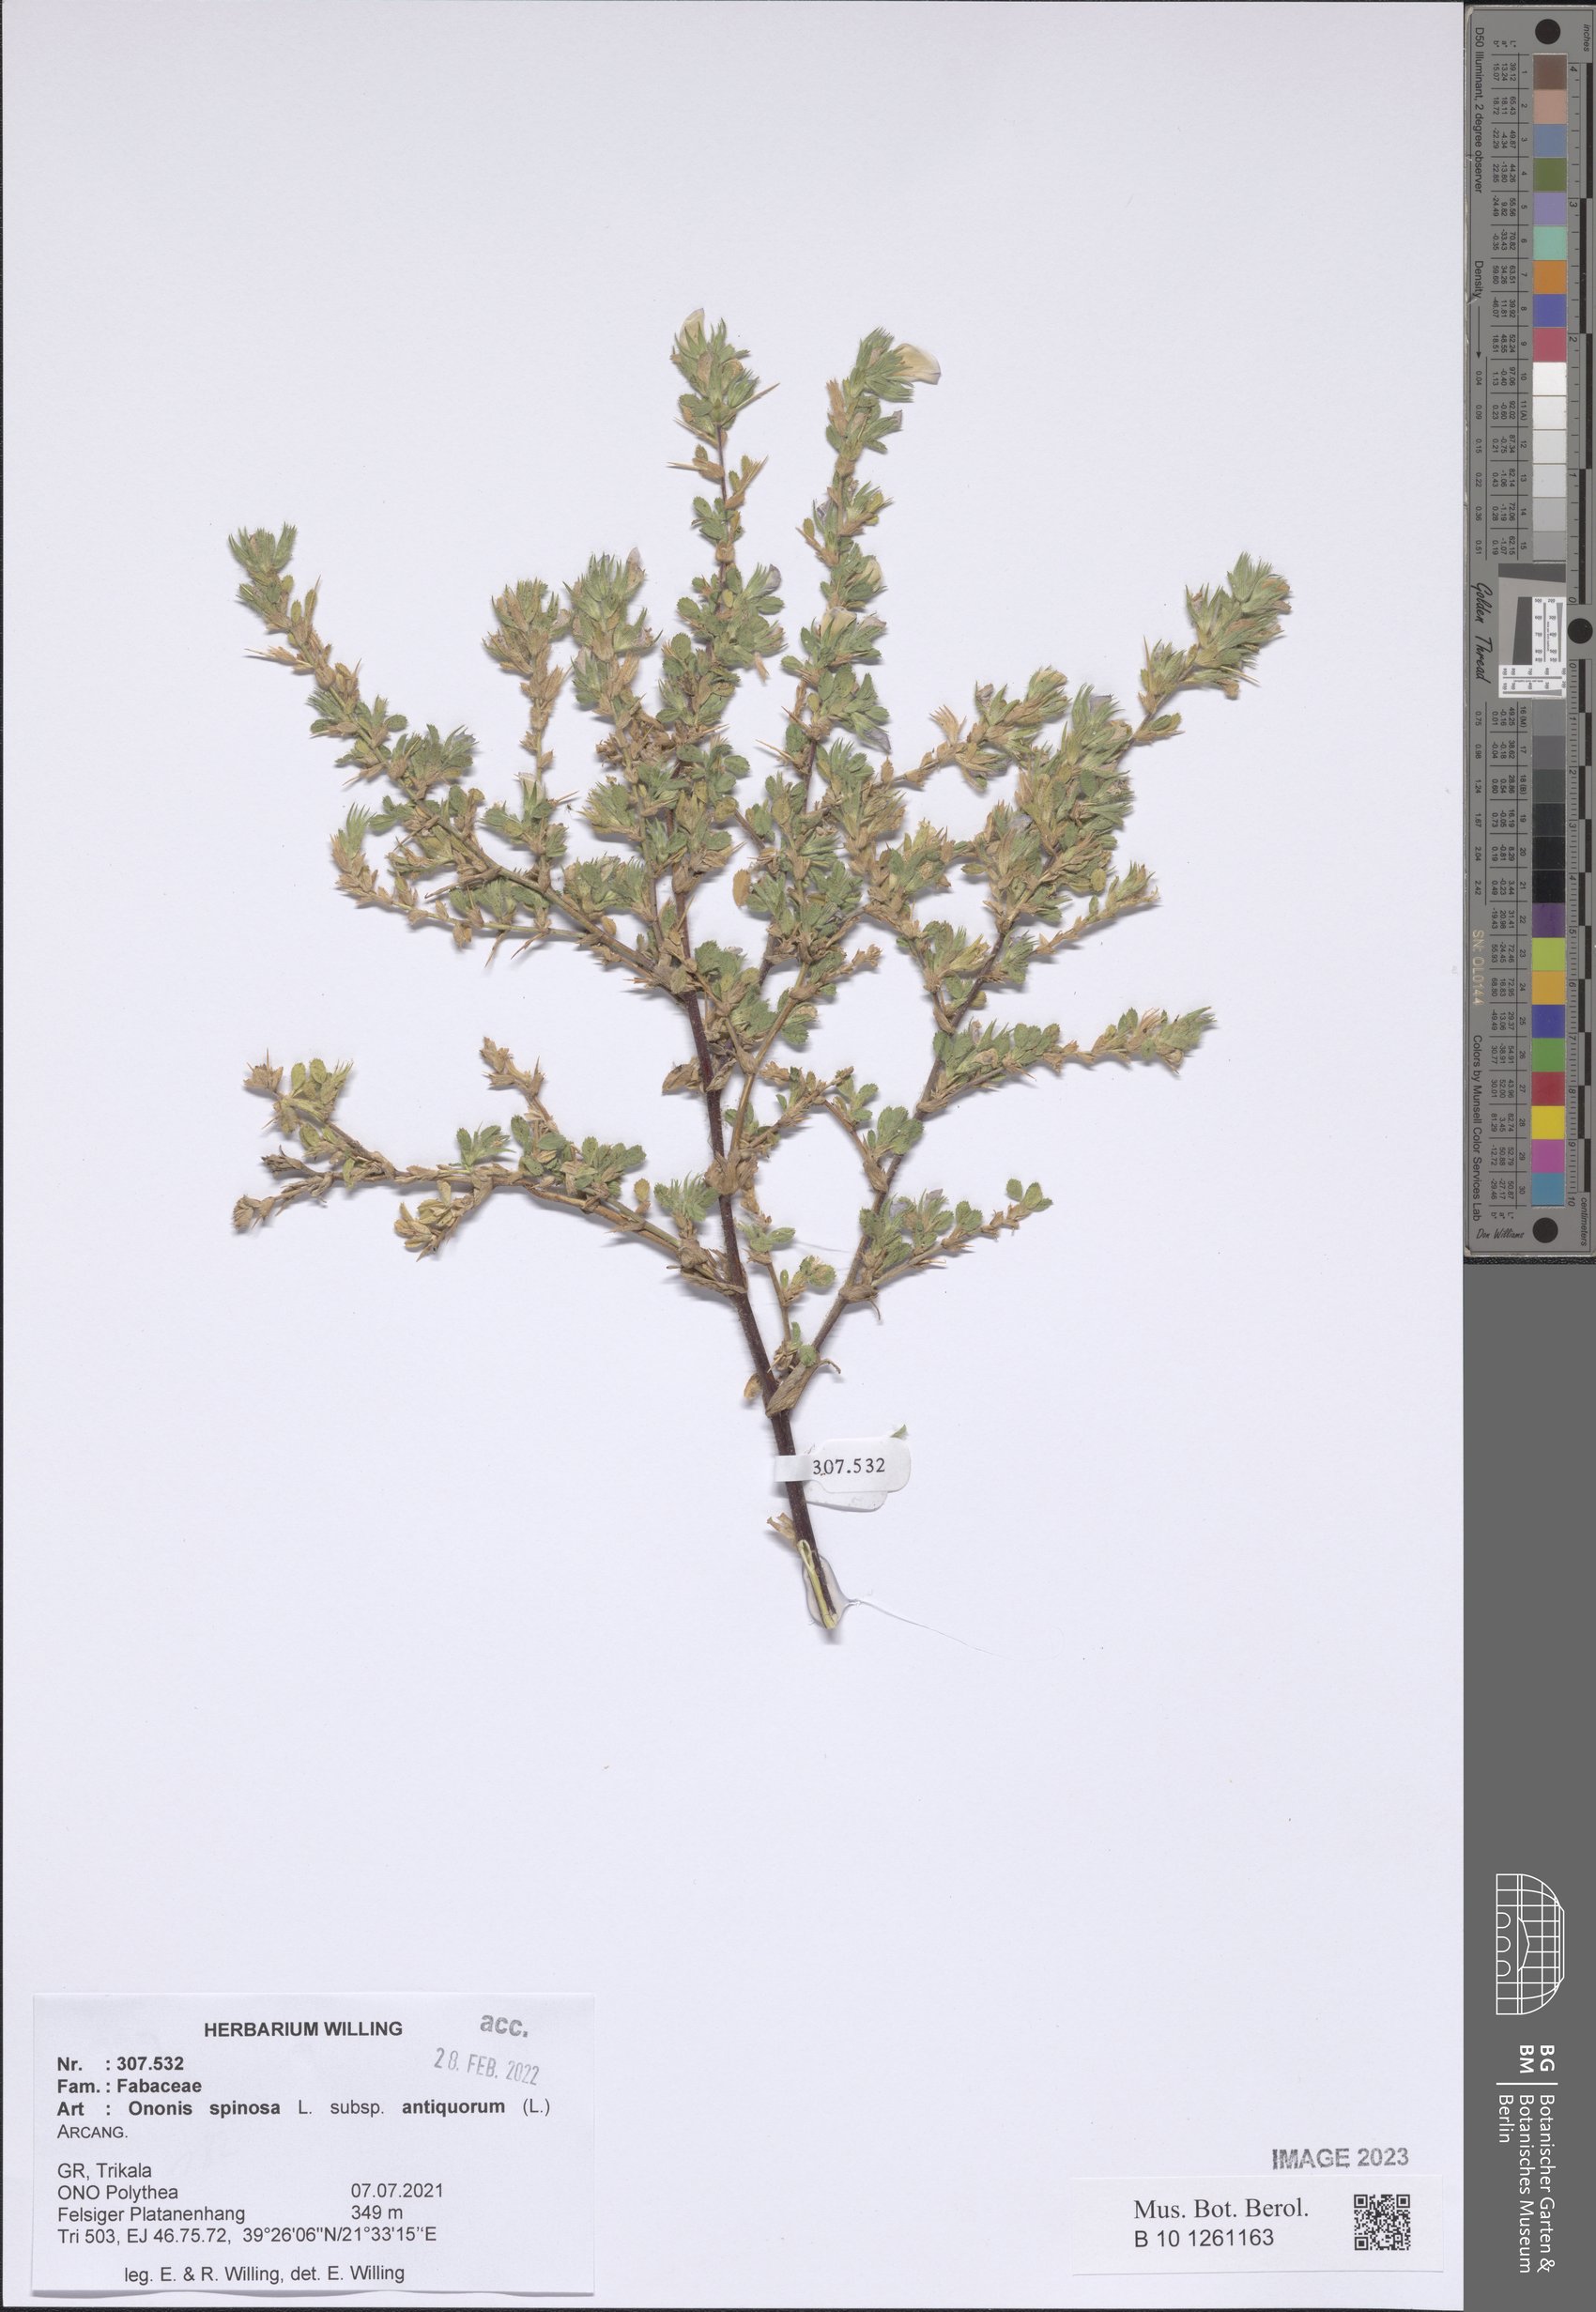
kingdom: Plantae
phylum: Tracheophyta
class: Magnoliopsida
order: Fabales
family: Fabaceae
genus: Ononis
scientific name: Ononis spinosa
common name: Spiny restharrow
